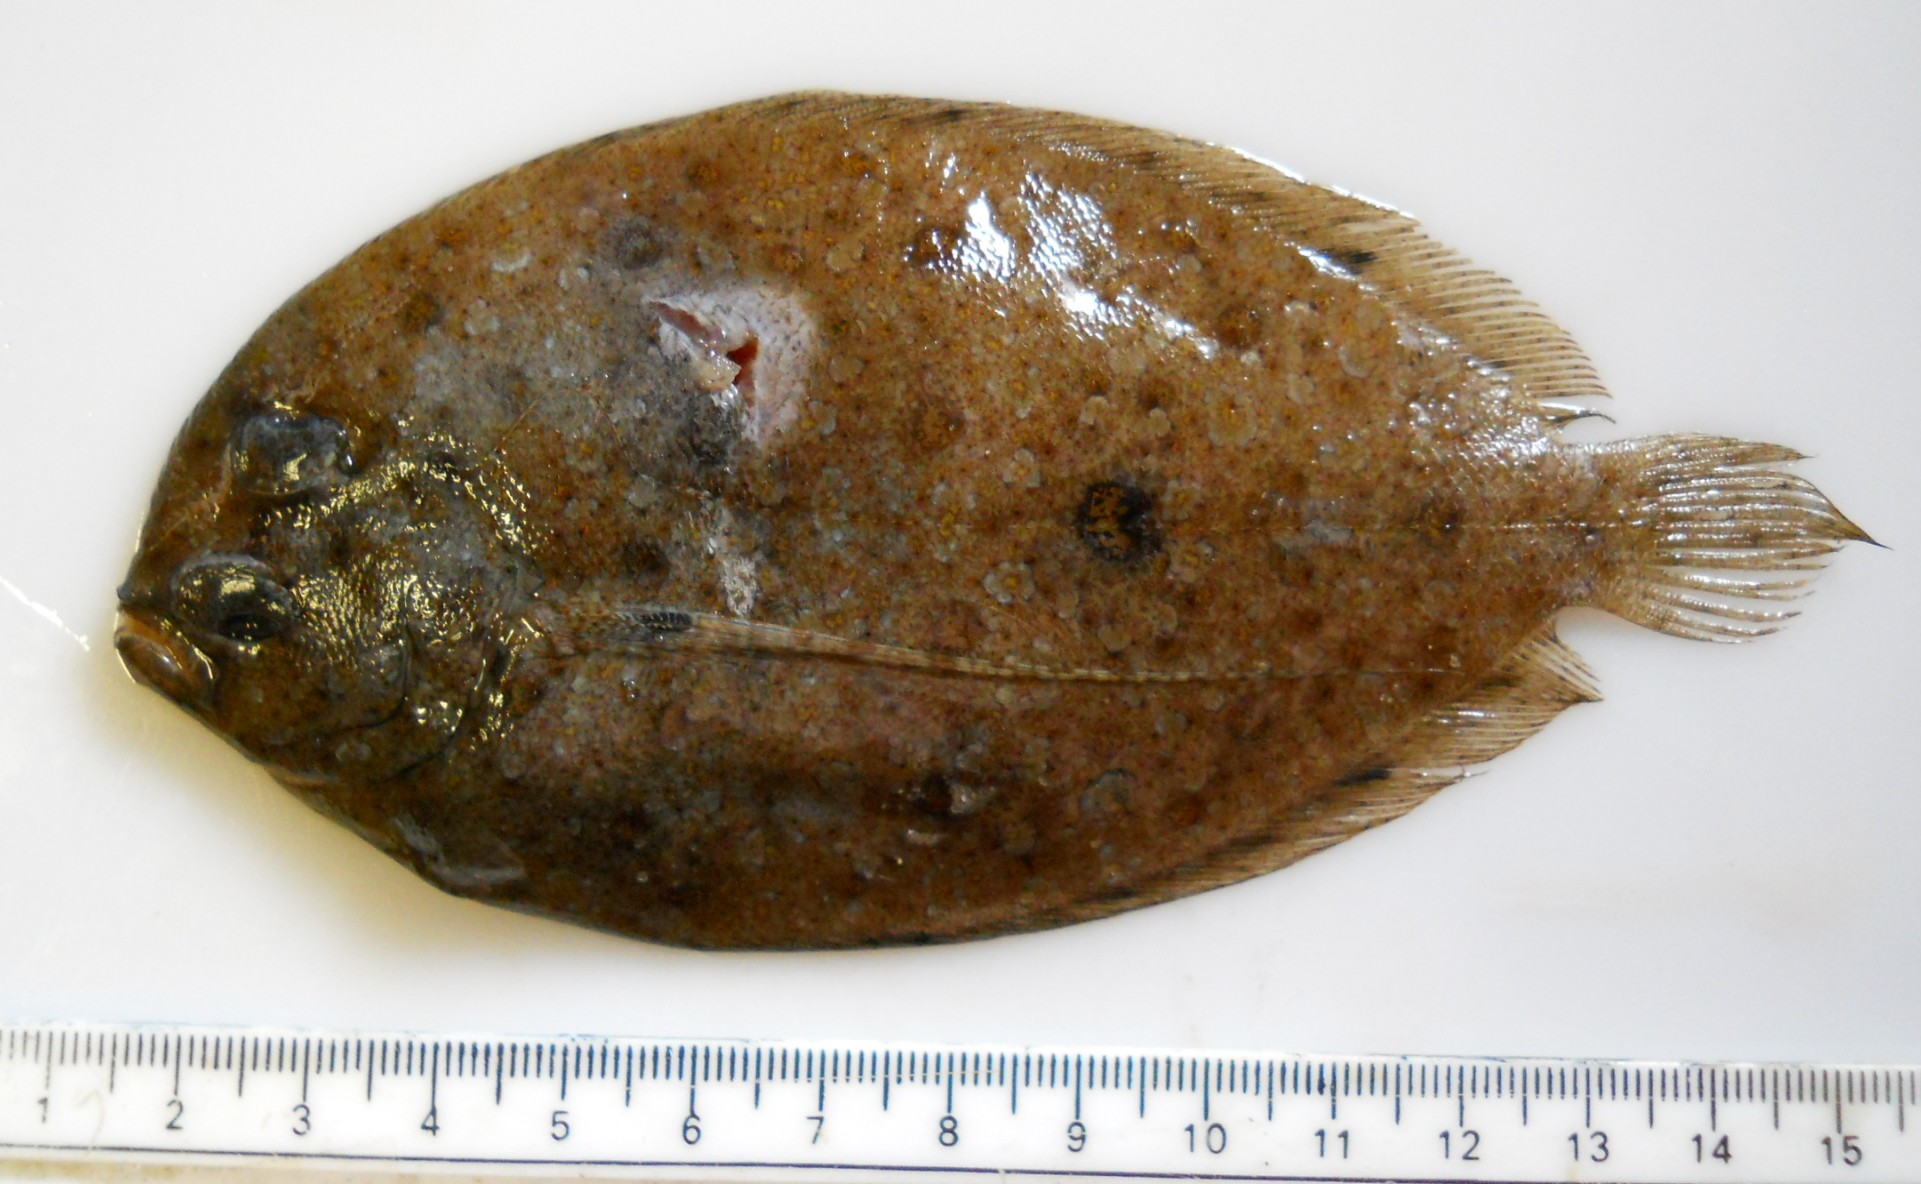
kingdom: Animalia
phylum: Chordata
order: Pleuronectiformes
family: Bothidae
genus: Bothus
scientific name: Bothus pantherinus
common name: Leopard flounder
